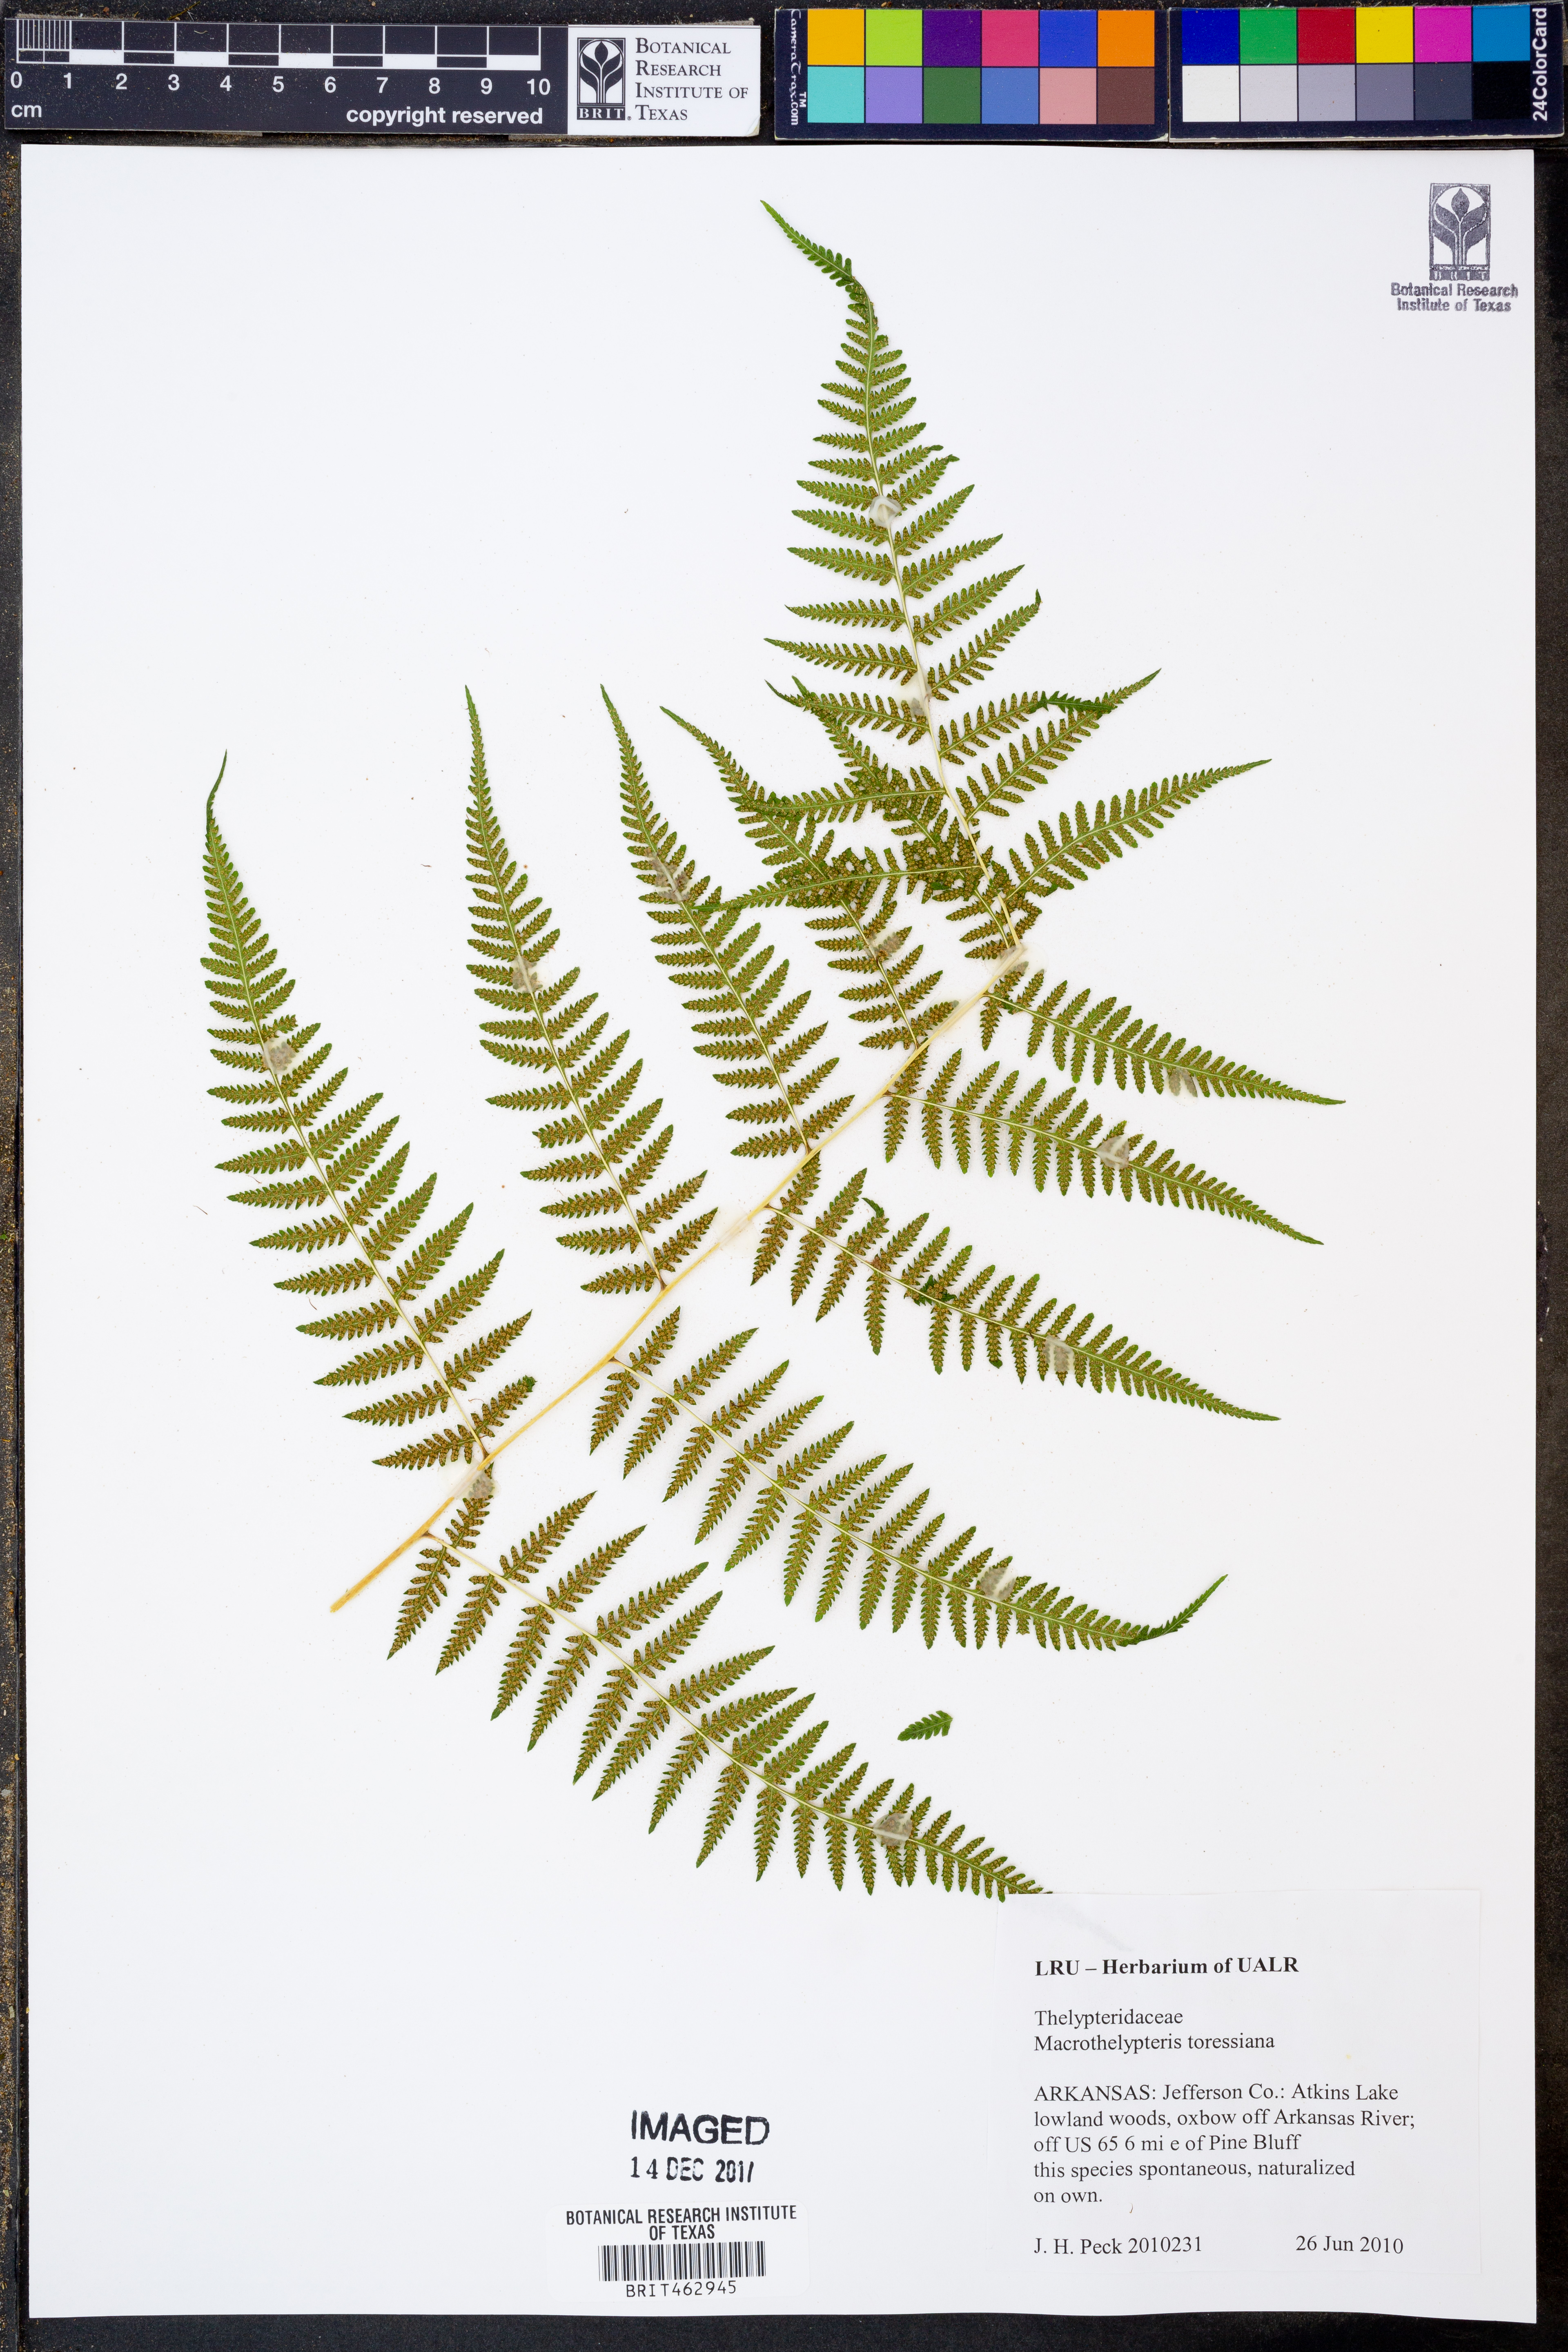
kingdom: Plantae
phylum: Tracheophyta
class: Polypodiopsida
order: Polypodiales
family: Thelypteridaceae
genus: Macrothelypteris
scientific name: Macrothelypteris torresiana
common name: Swordfern
